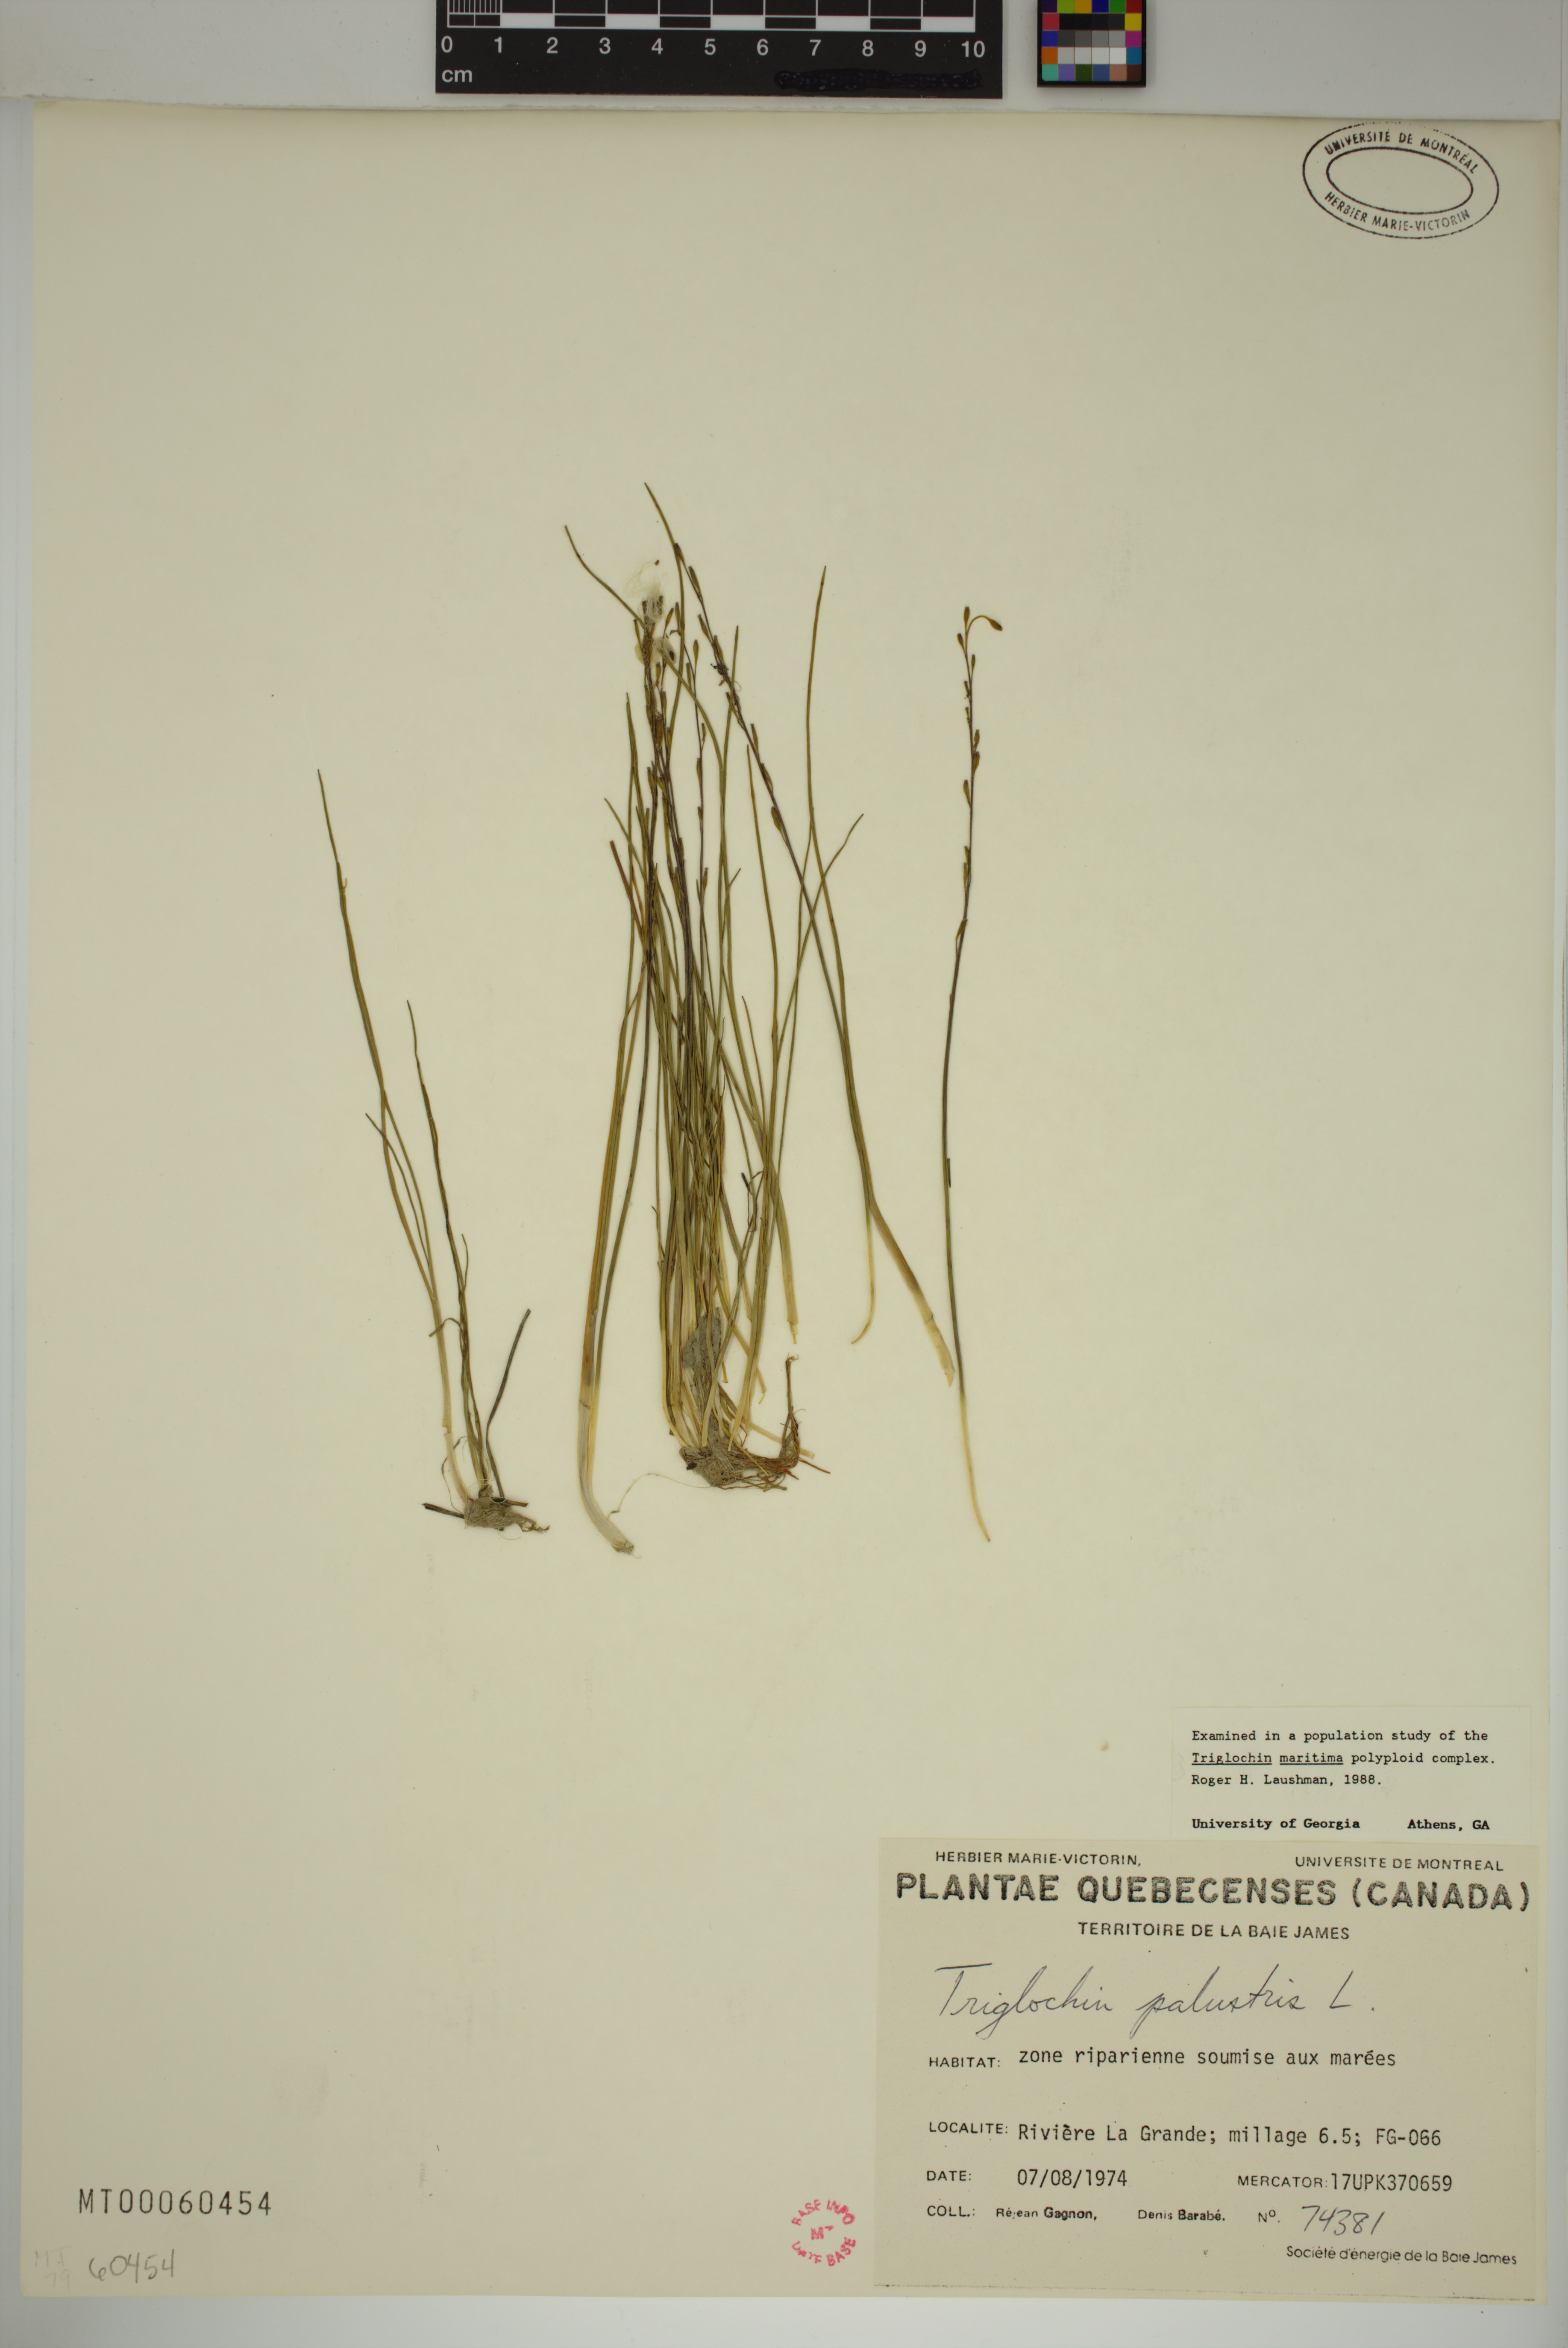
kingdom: Plantae
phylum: Tracheophyta
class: Liliopsida
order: Alismatales
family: Juncaginaceae
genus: Triglochin
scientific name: Triglochin palustris
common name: Marsh arrowgrass
